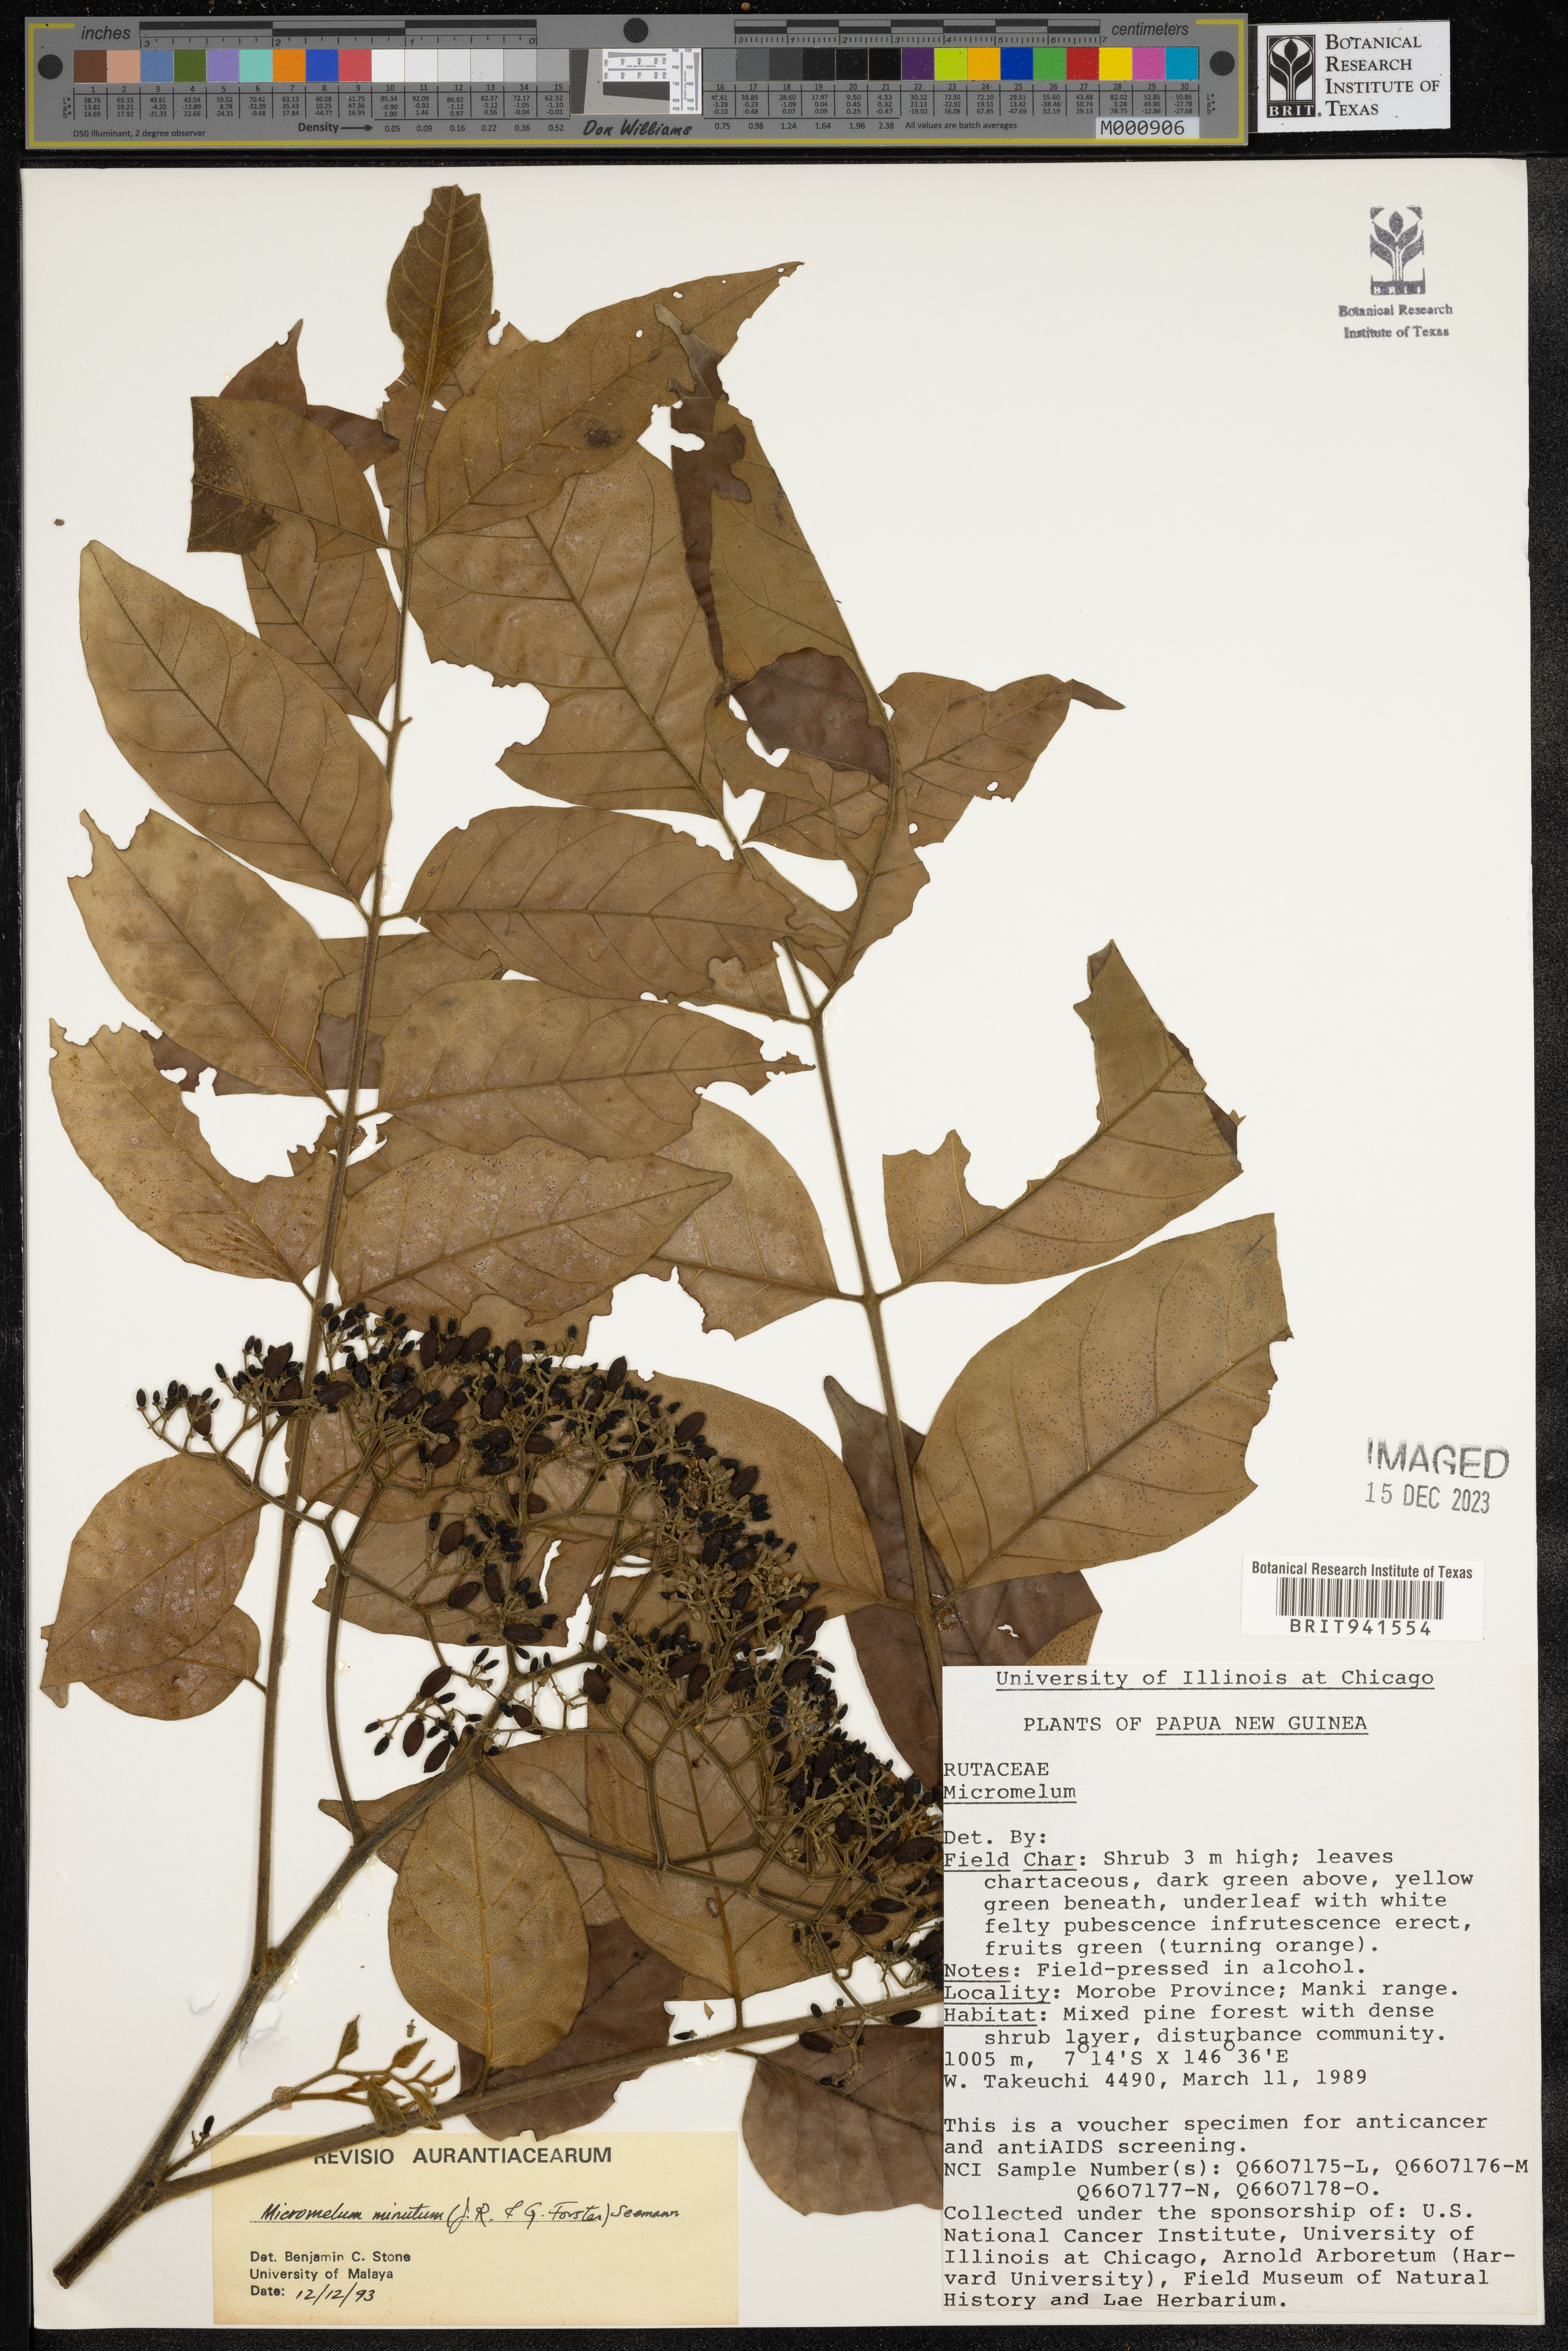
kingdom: Plantae
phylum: Tracheophyta
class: Magnoliopsida
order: Sapindales
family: Rutaceae
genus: Micromelum
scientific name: Micromelum
